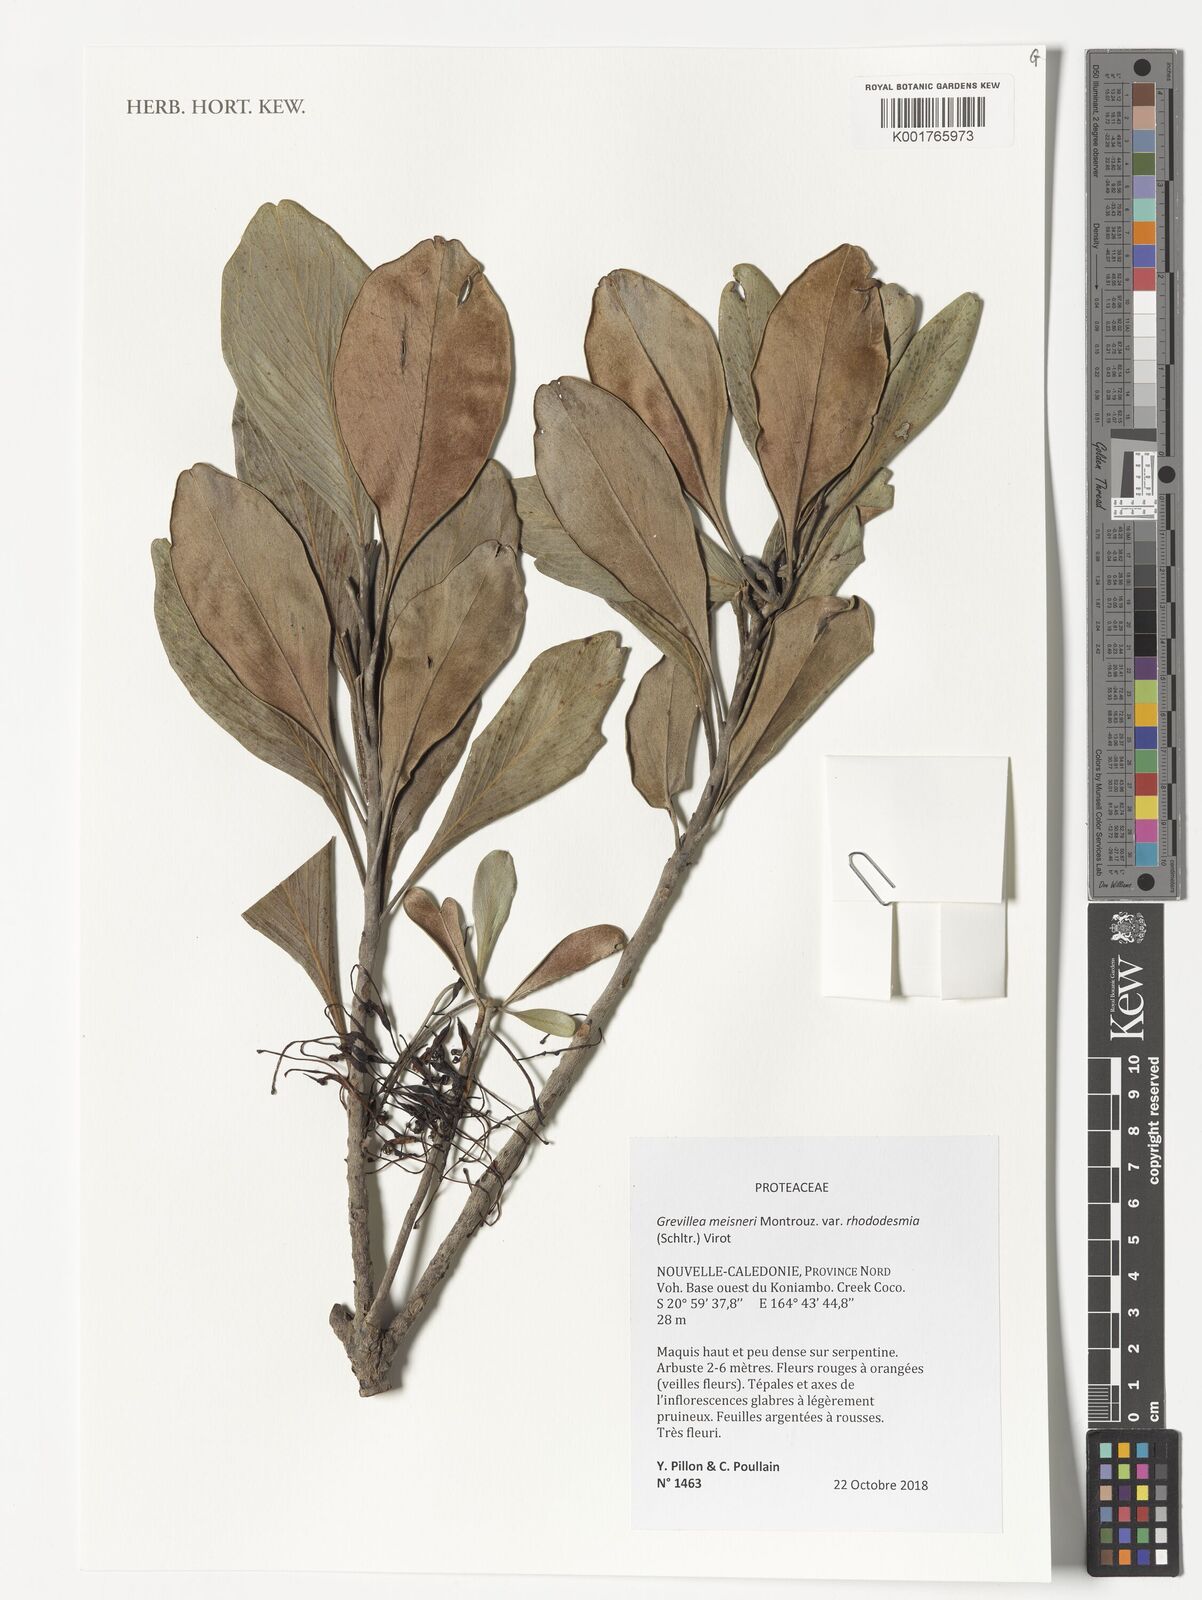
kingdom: Plantae
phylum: Tracheophyta
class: Magnoliopsida
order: Proteales
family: Proteaceae
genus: Grevillea
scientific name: Grevillea meisneri
